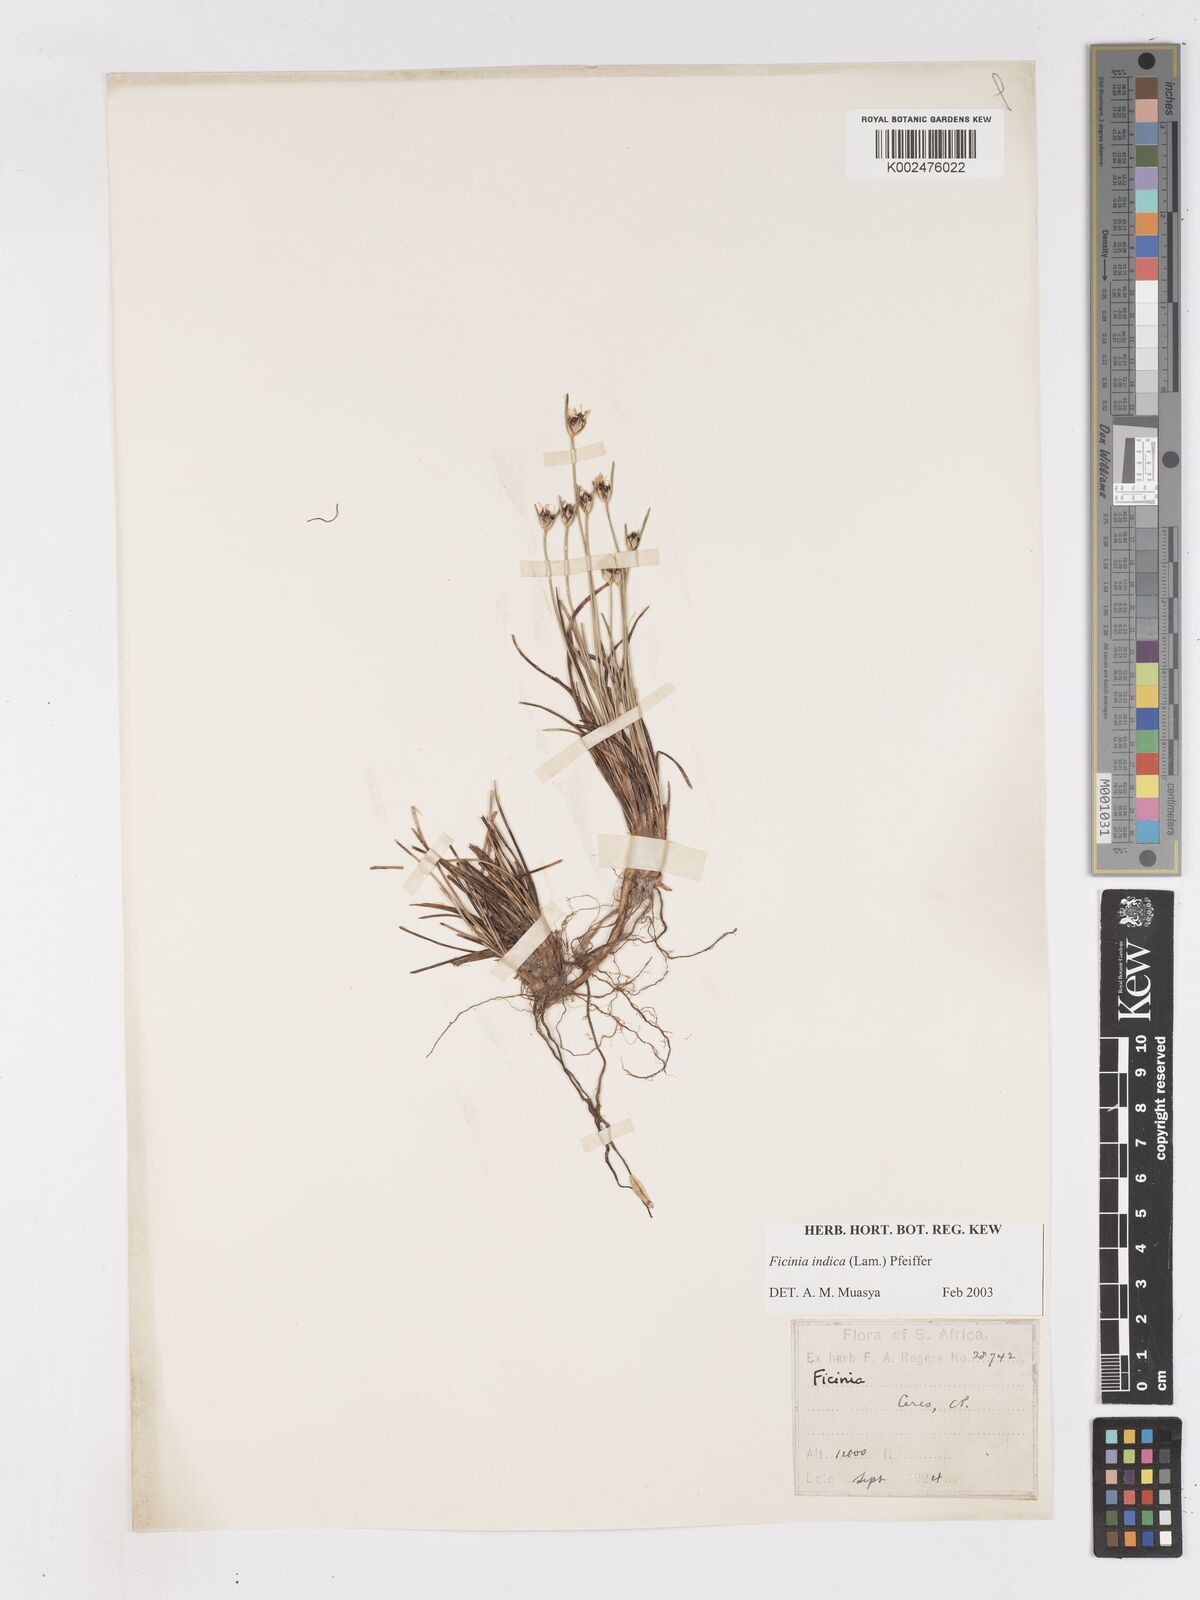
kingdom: Plantae
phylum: Tracheophyta
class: Liliopsida
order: Poales
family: Cyperaceae
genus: Ficinia
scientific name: Ficinia indica
